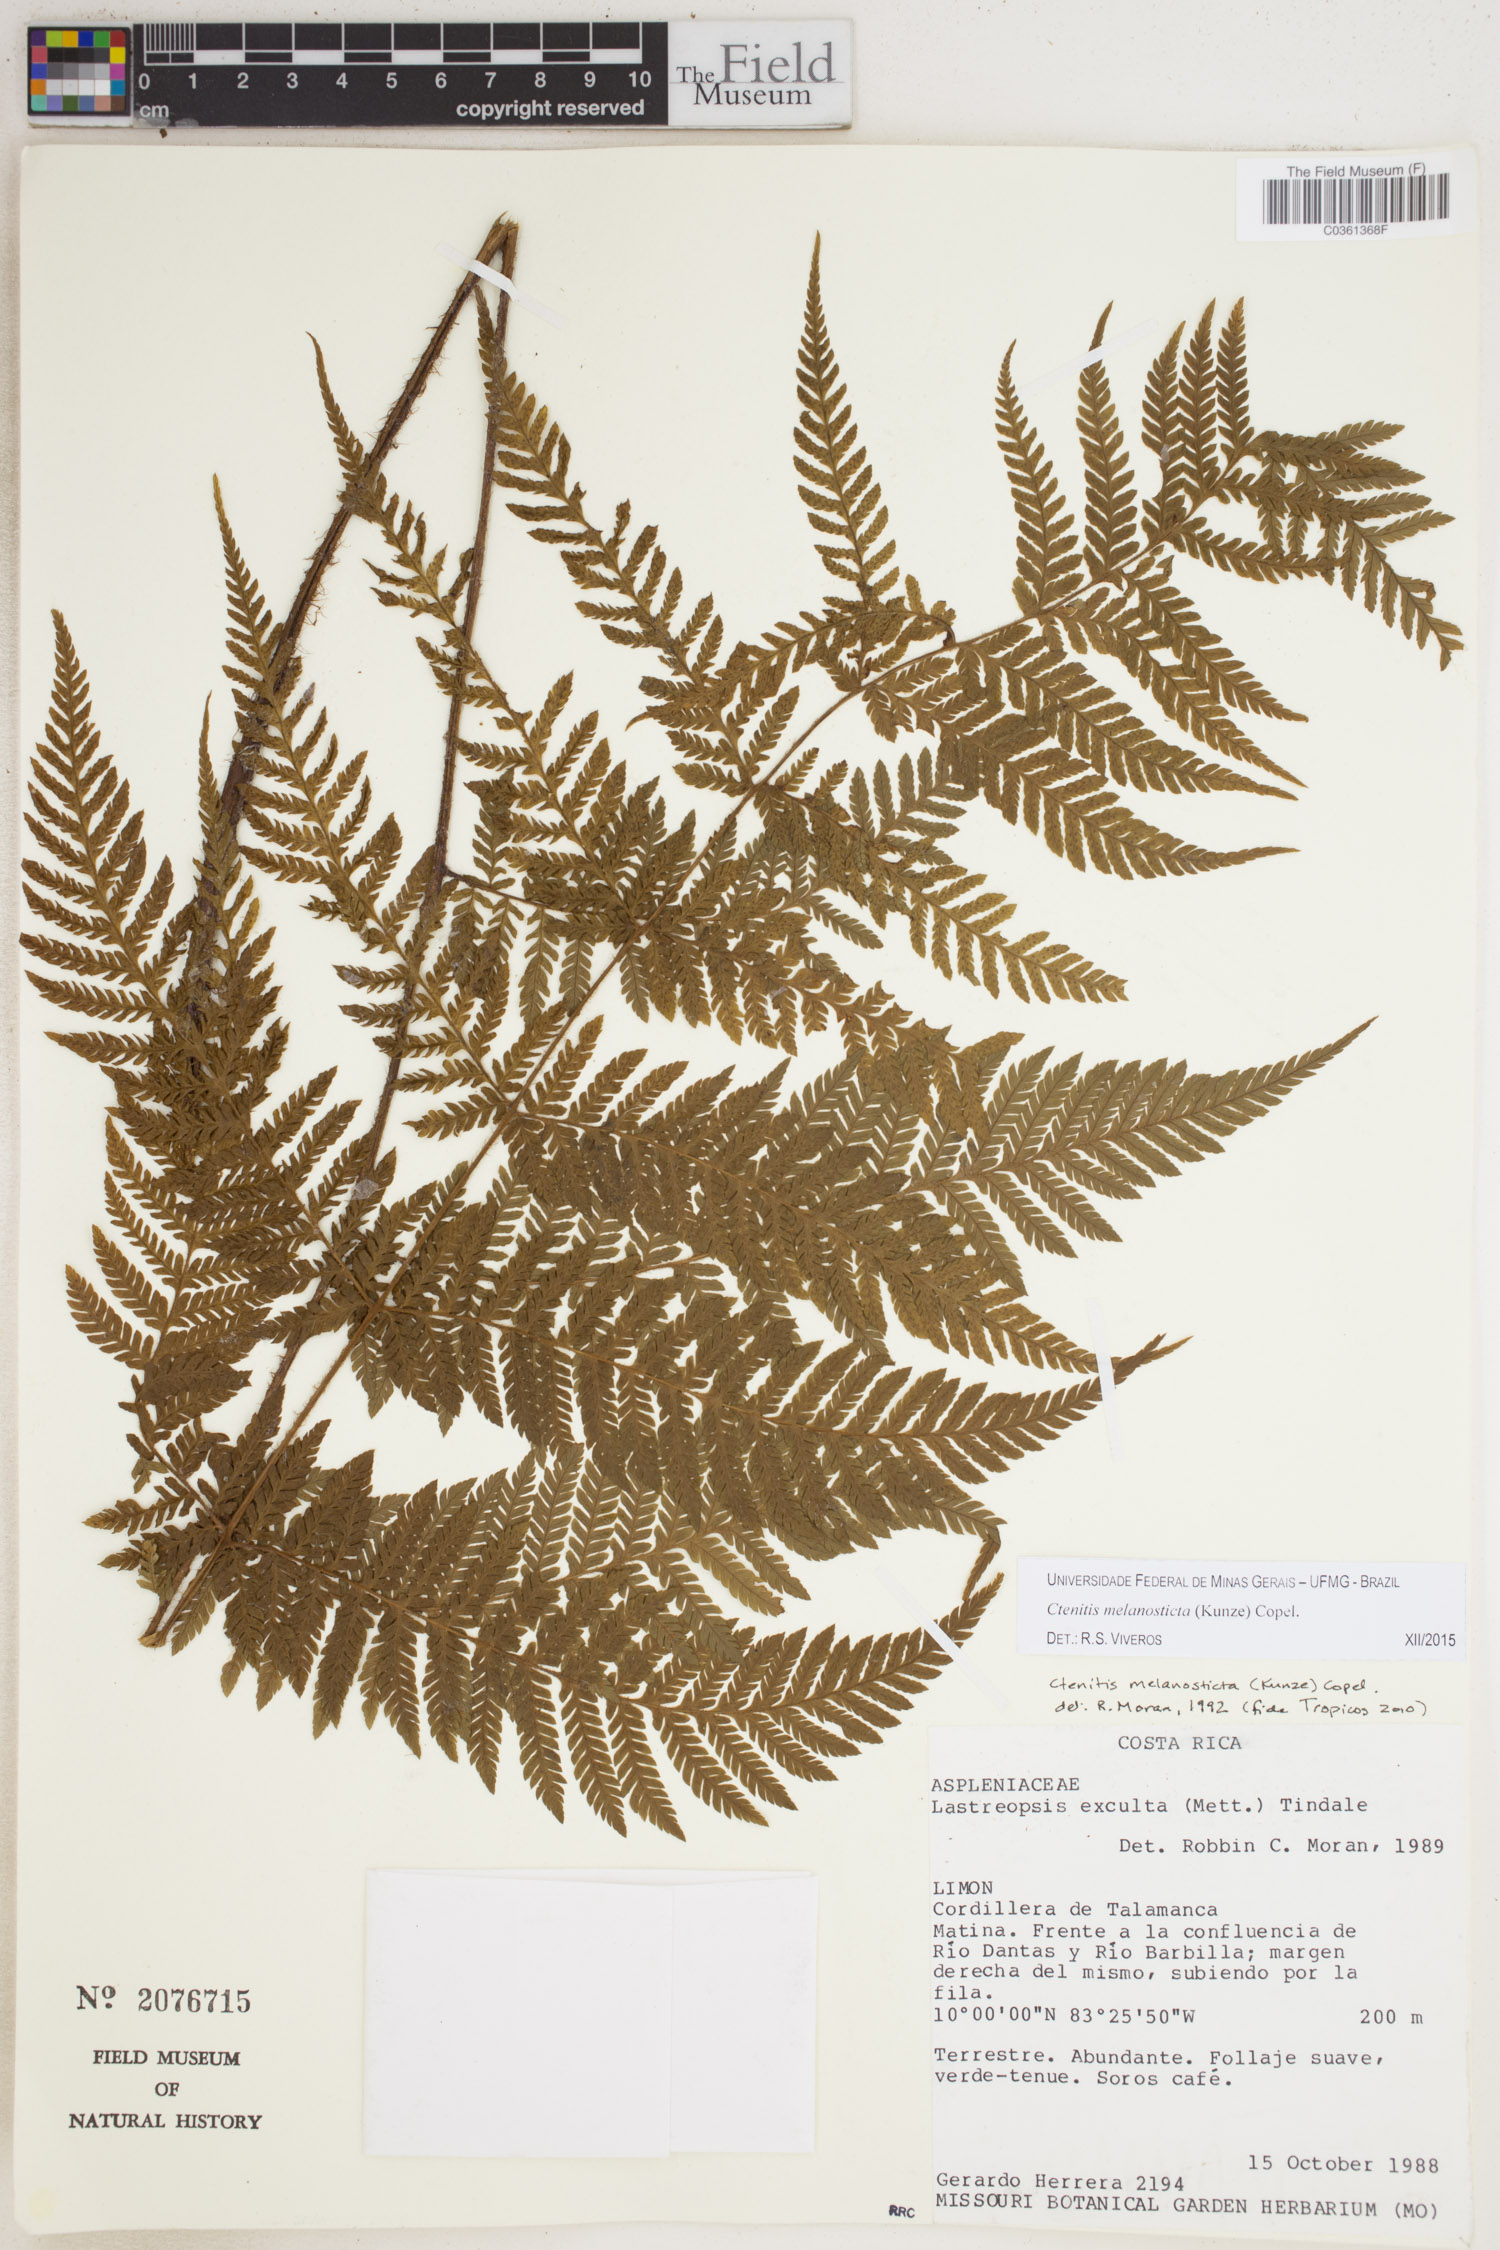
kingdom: Plantae
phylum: Tracheophyta
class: Polypodiopsida
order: Polypodiales
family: Dryopteridaceae
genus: Ctenitis
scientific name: Ctenitis melanosticta
